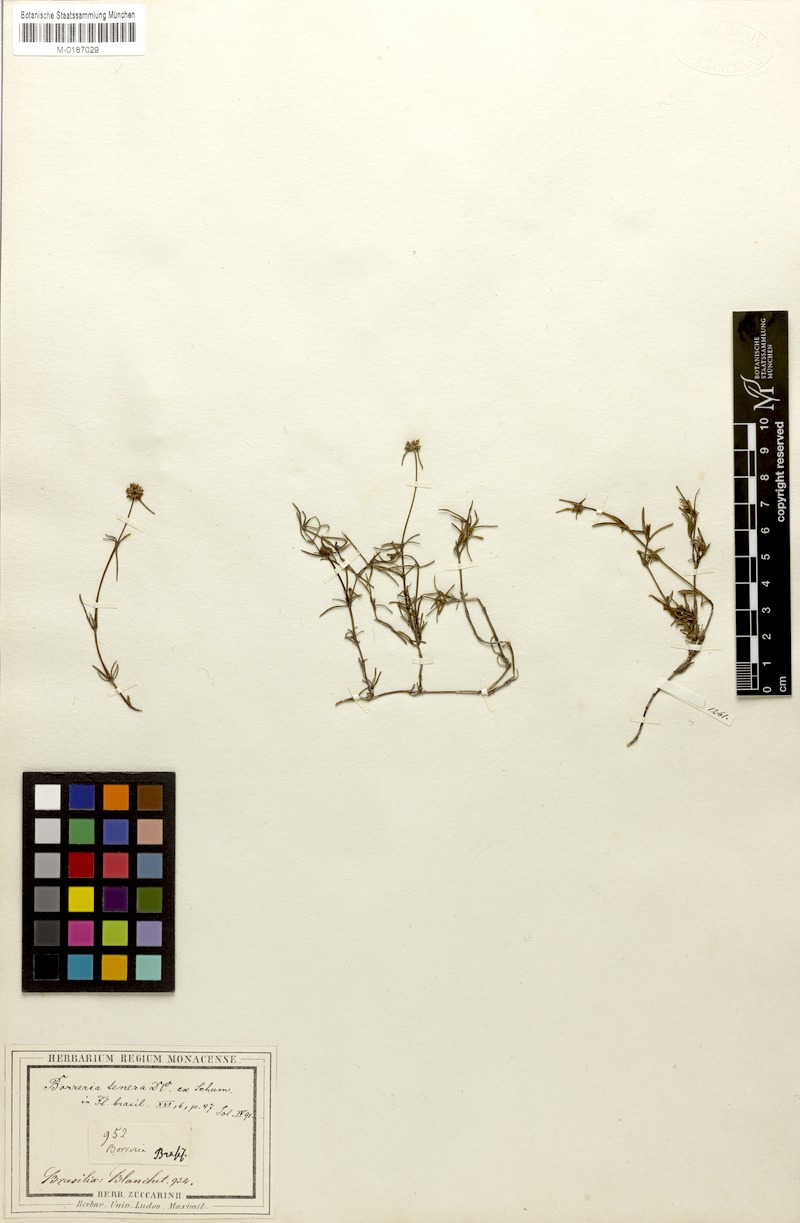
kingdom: Plantae
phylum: Tracheophyta
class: Magnoliopsida
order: Gentianales
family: Rubiaceae
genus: Spermacoce
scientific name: Spermacoce pohliana
